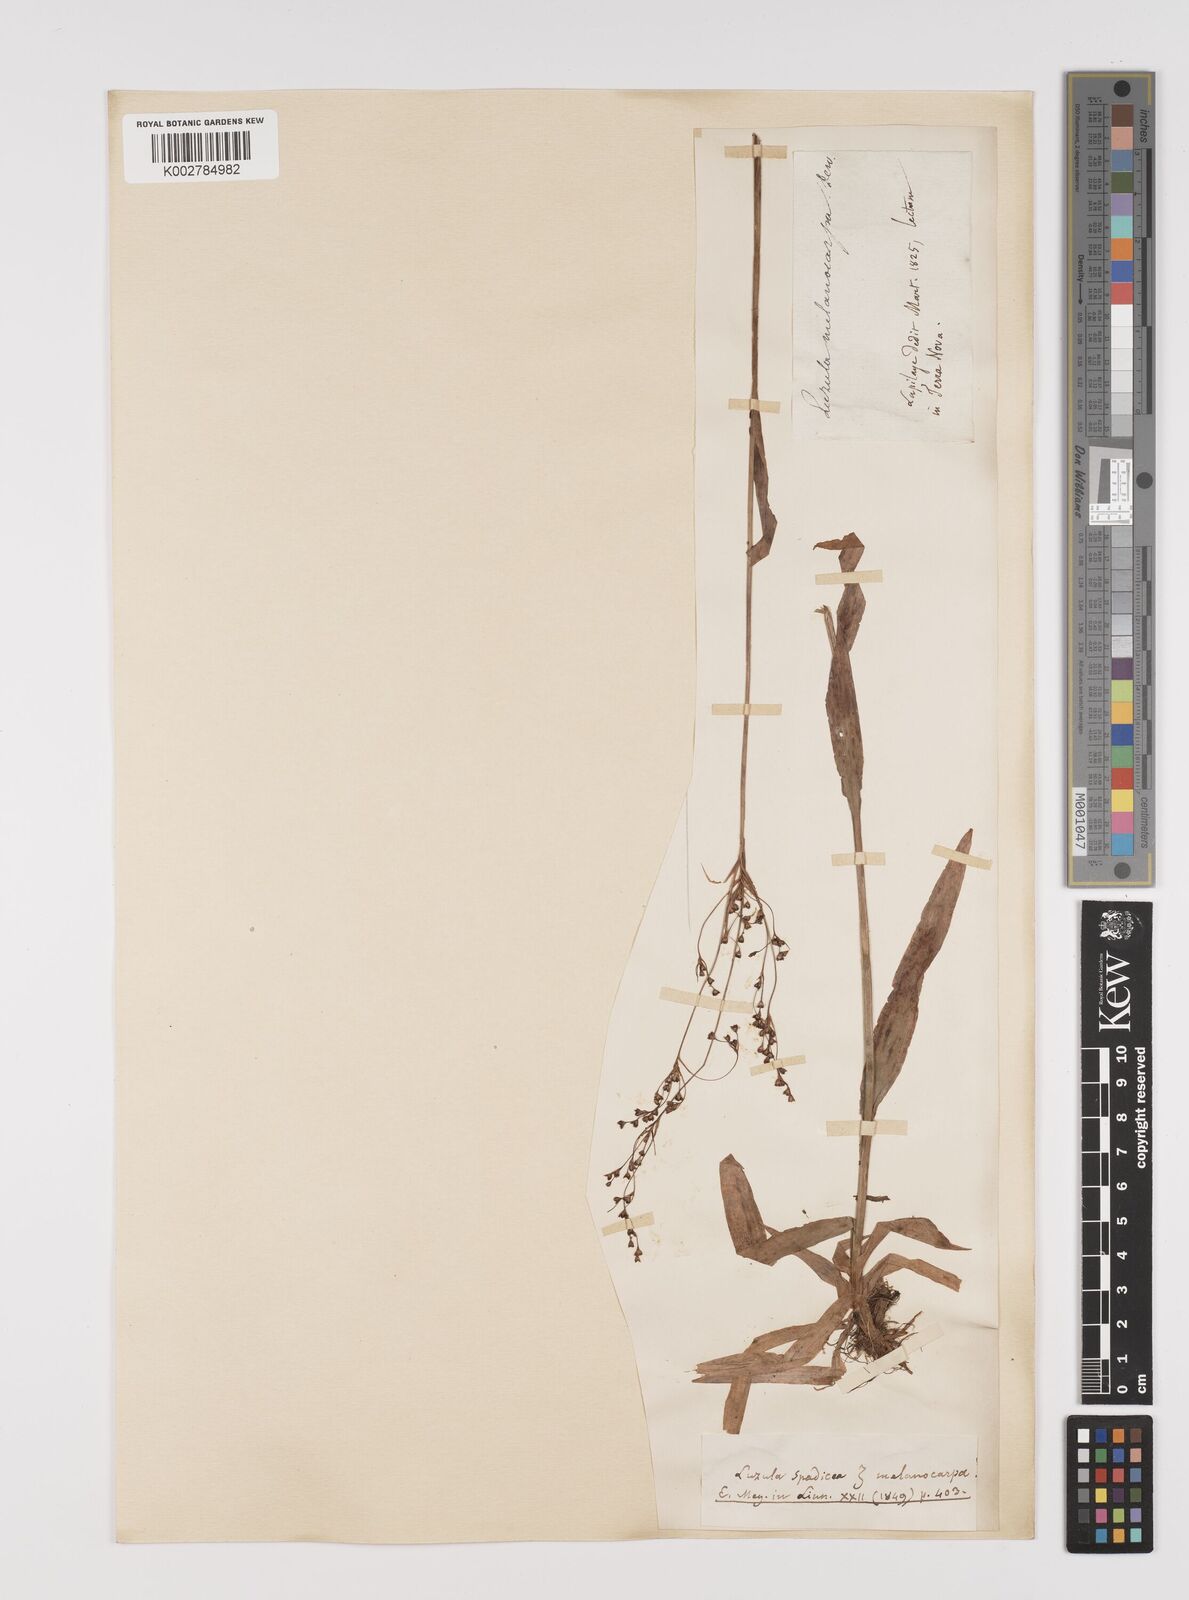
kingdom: Plantae
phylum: Tracheophyta
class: Liliopsida
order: Poales
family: Juncaceae
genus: Luzula
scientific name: Luzula parviflora
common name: Millet woodrush
